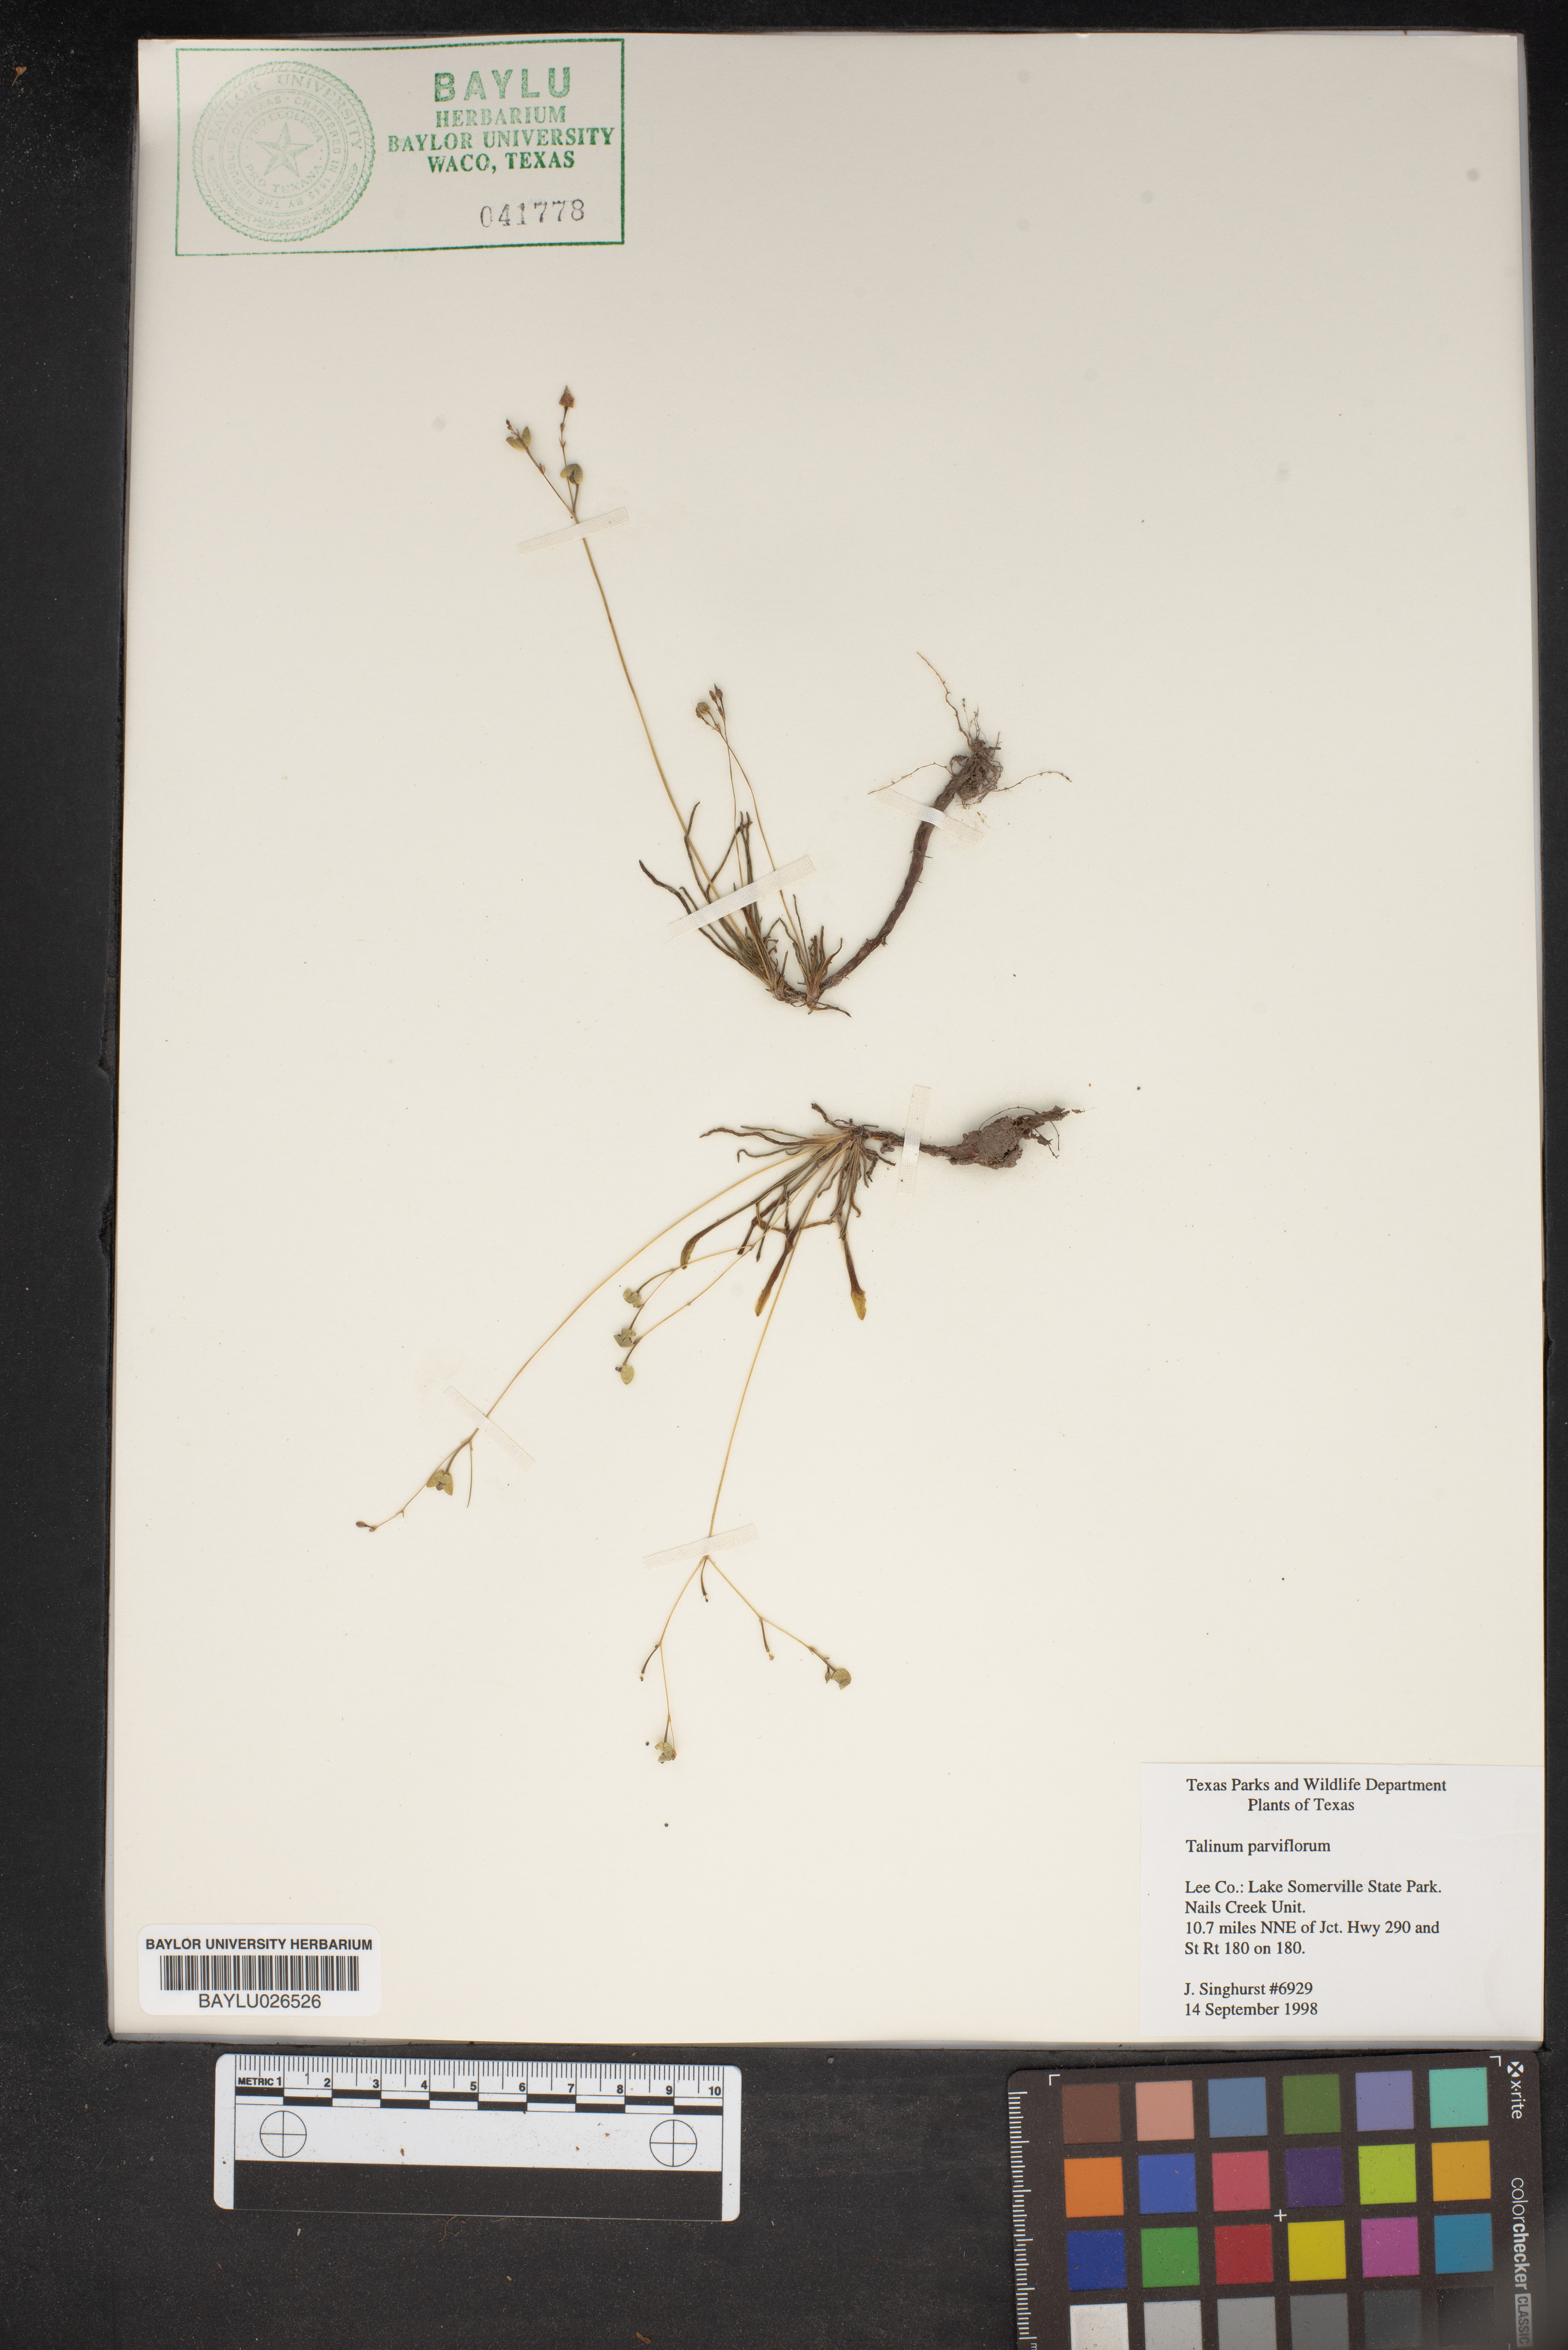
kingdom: Plantae
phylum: Tracheophyta
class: Magnoliopsida
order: Caryophyllales
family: Montiaceae
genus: Phemeranthus
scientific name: Phemeranthus parviflorus
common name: Sunbright
